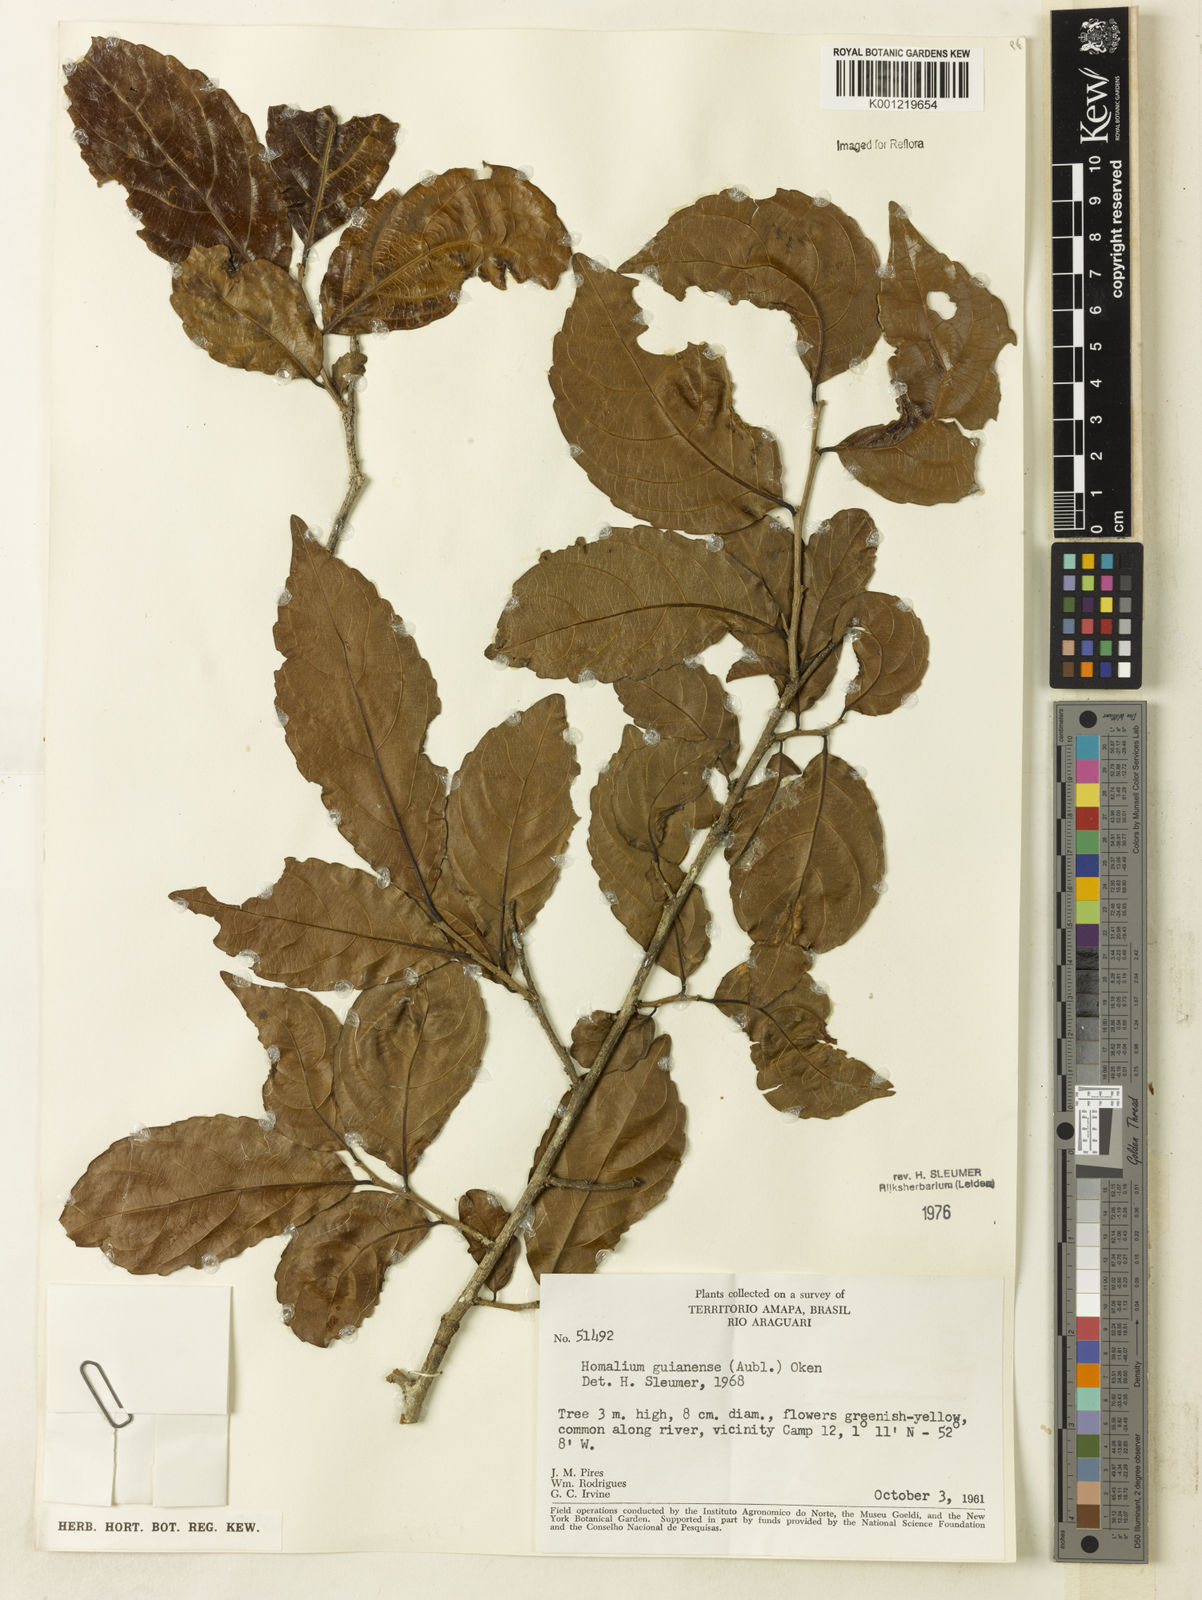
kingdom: Plantae
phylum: Tracheophyta
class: Magnoliopsida
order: Malpighiales
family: Salicaceae
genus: Homalium
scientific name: Homalium guianense
